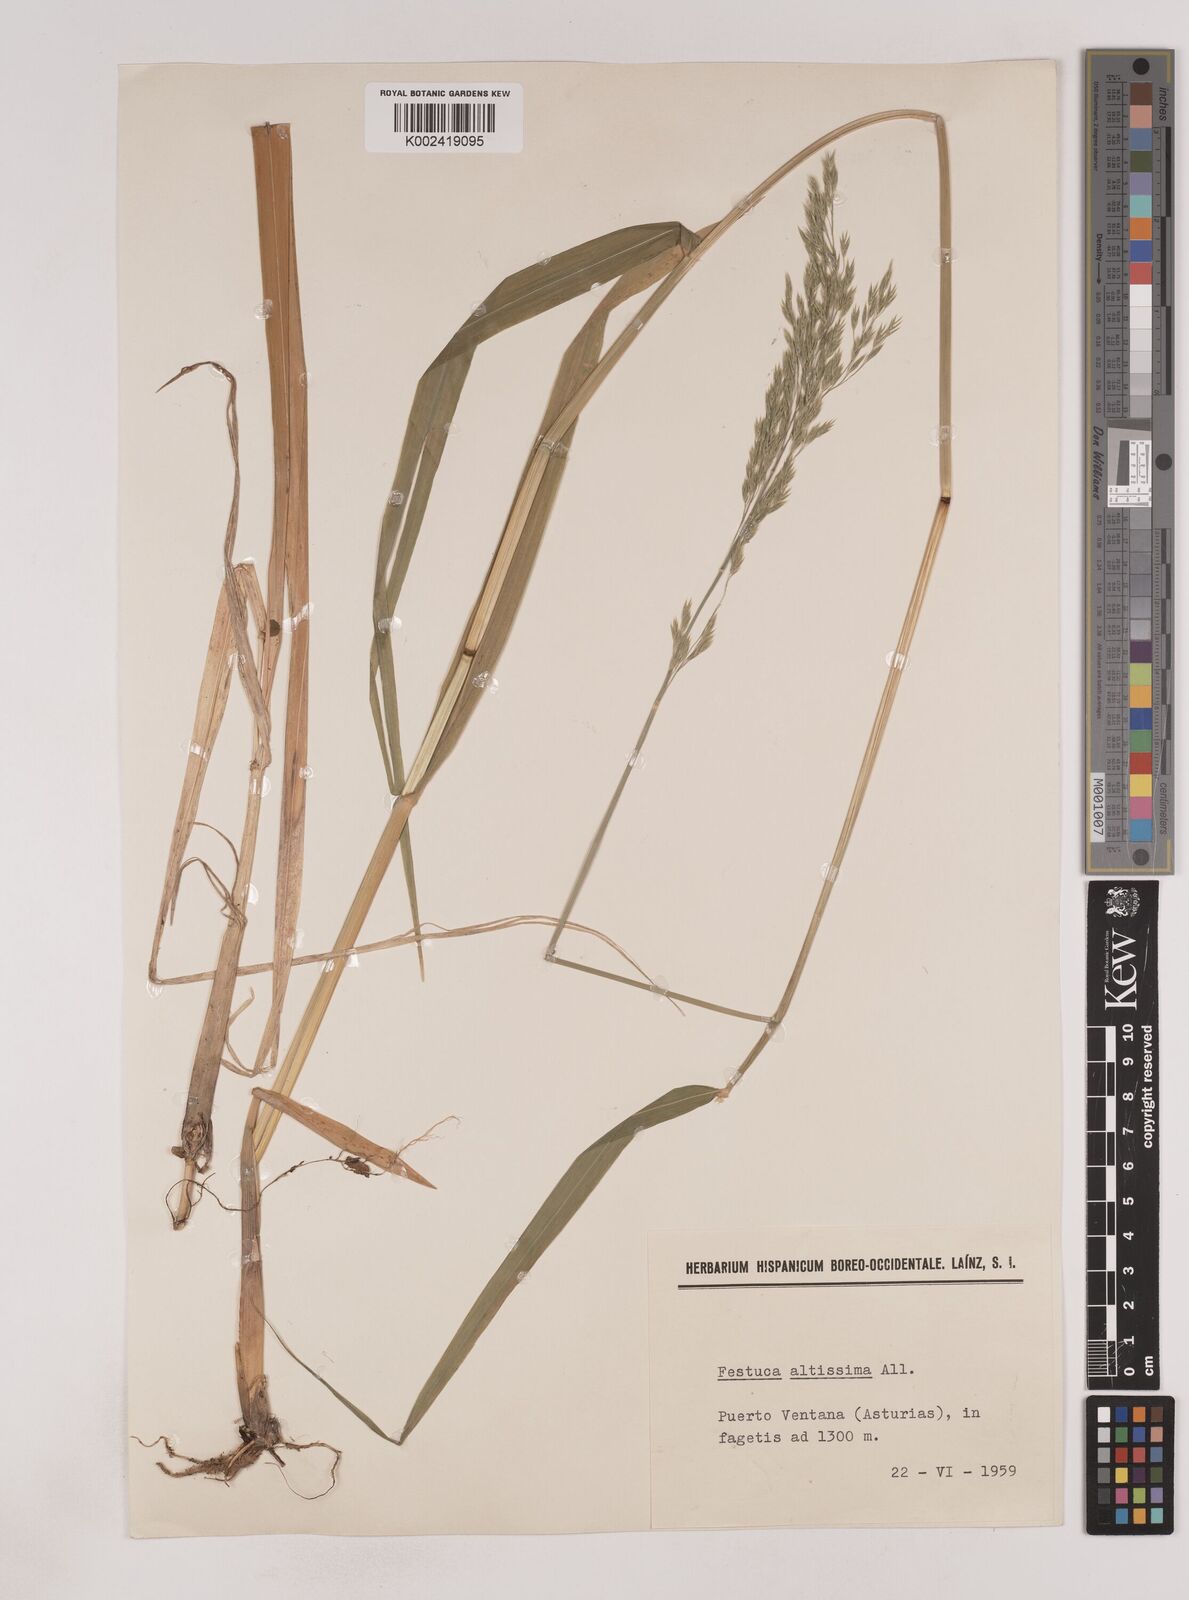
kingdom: Plantae
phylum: Tracheophyta
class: Liliopsida
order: Poales
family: Poaceae
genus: Festuca
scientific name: Festuca drymeja
